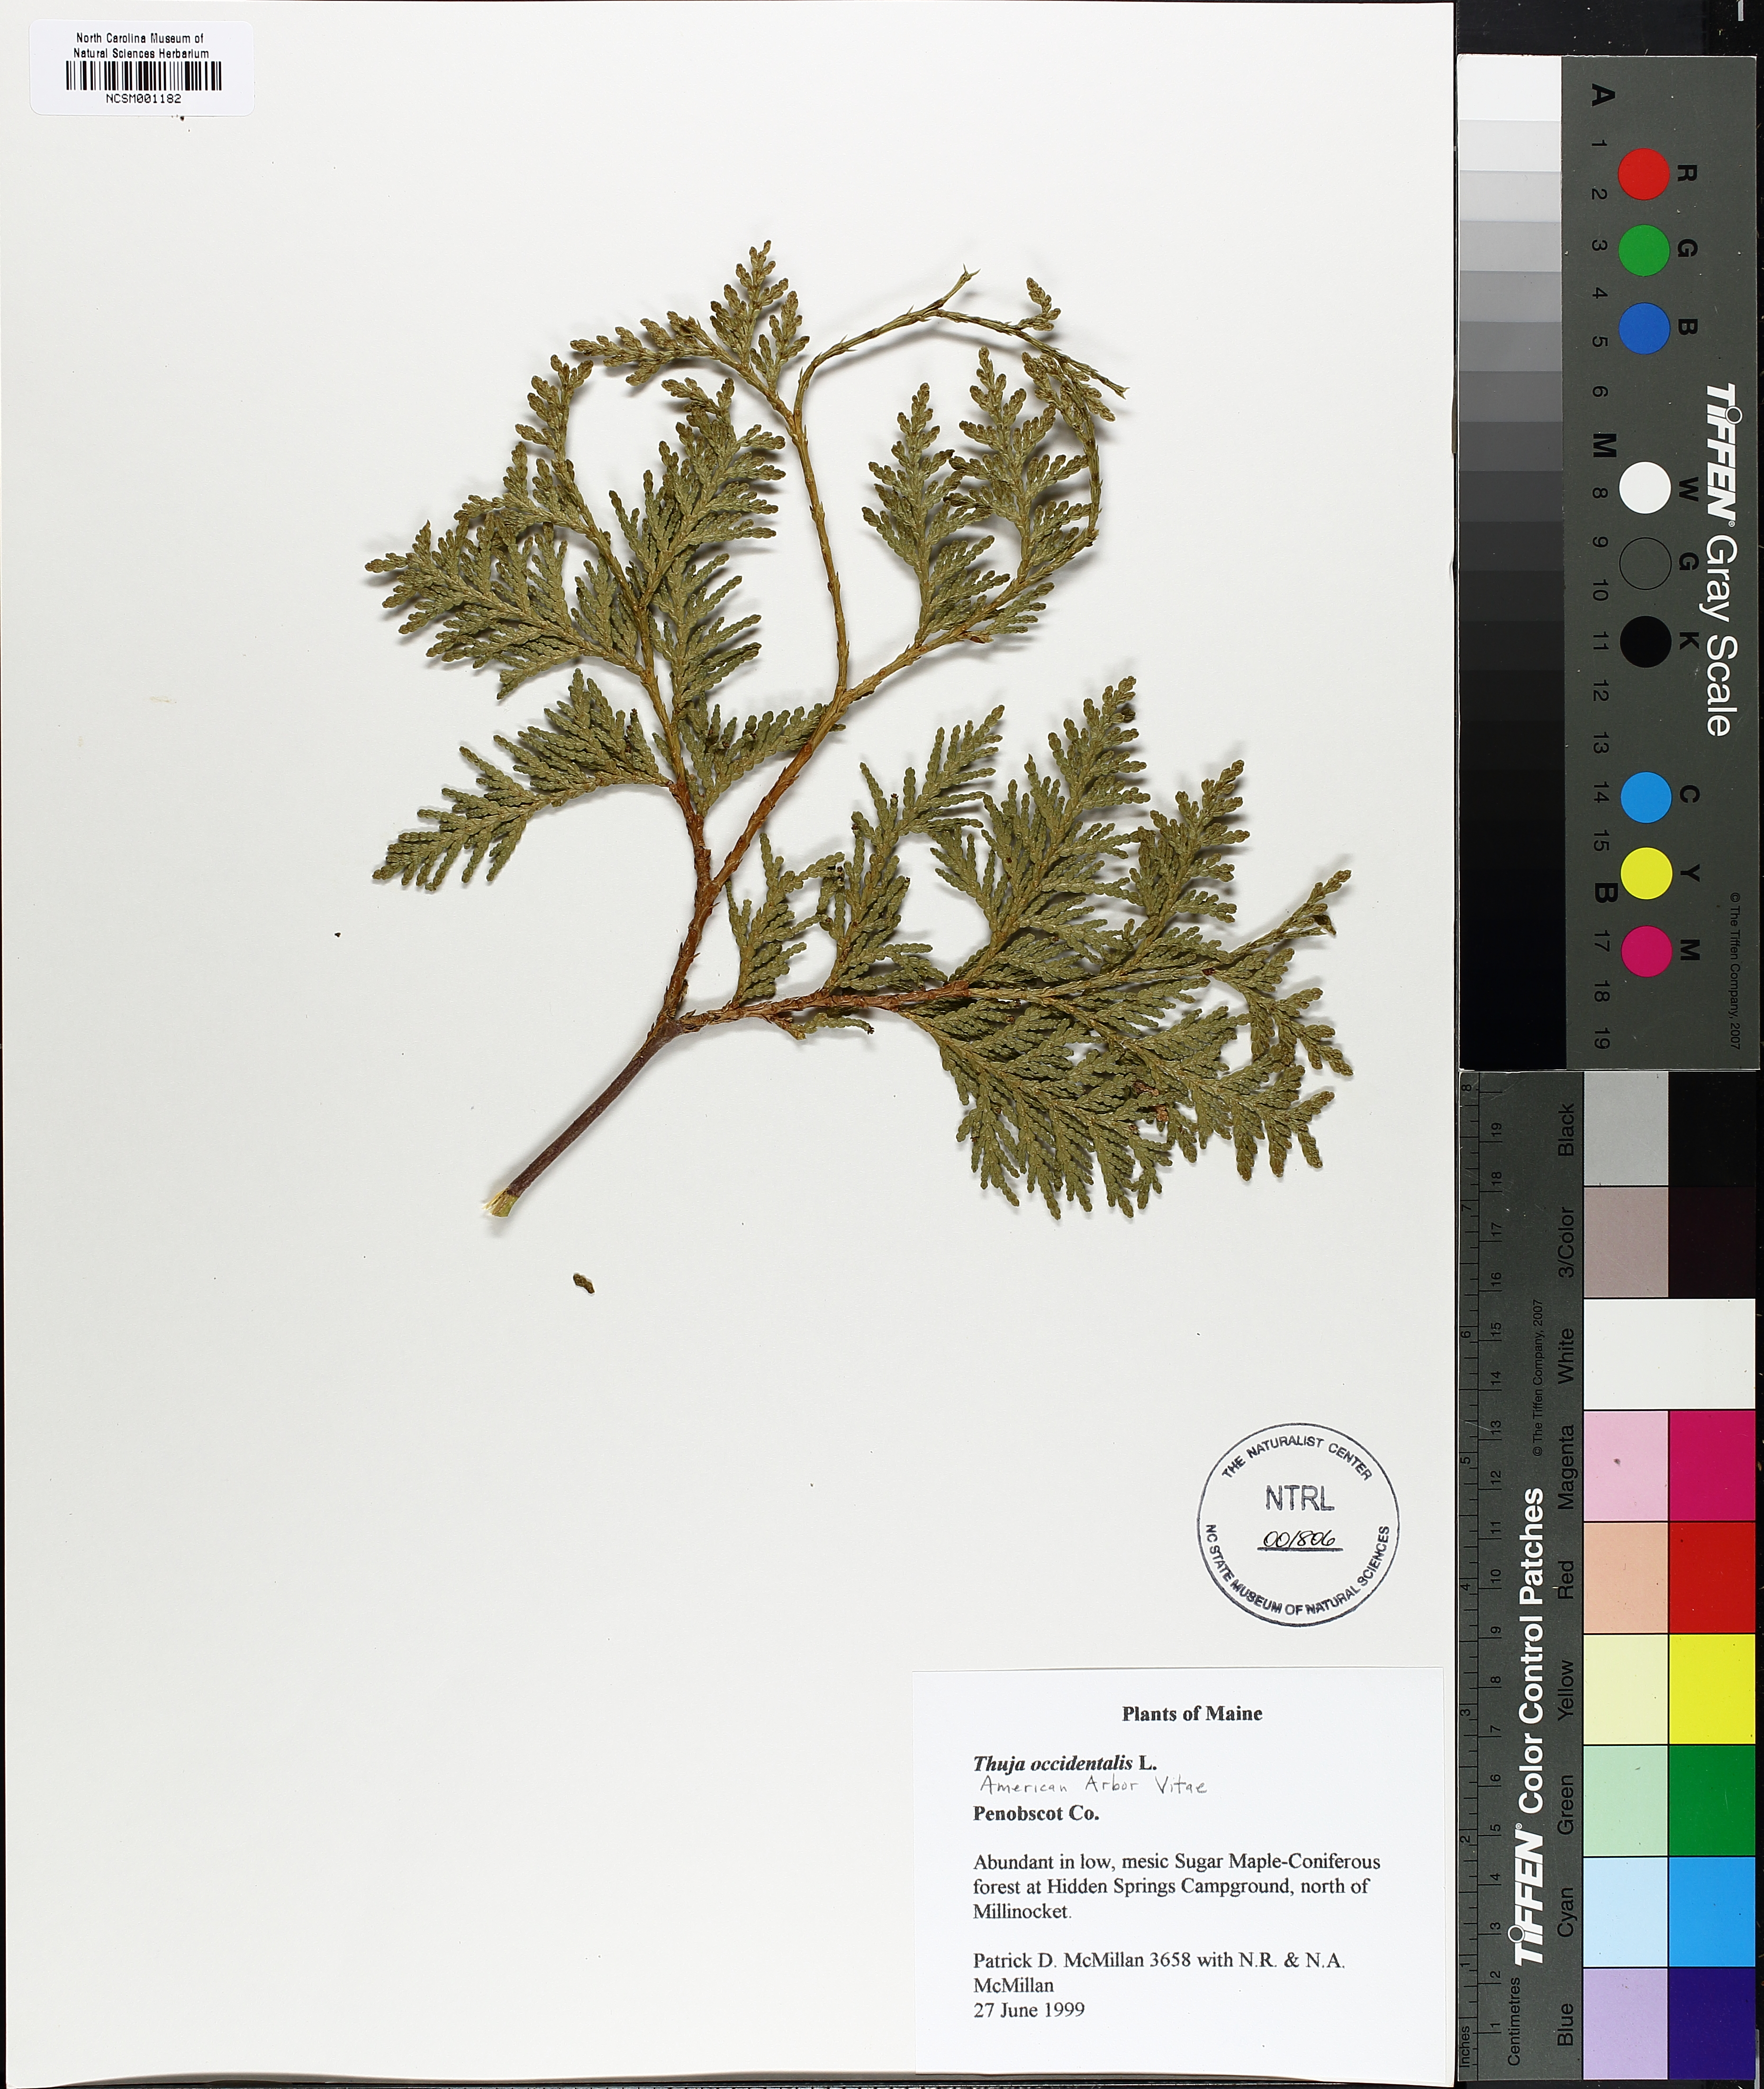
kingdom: Plantae
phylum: Tracheophyta
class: Pinopsida
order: Pinales
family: Cupressaceae
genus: Thuja
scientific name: Thuja occidentalis
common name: Northern white-cedar
